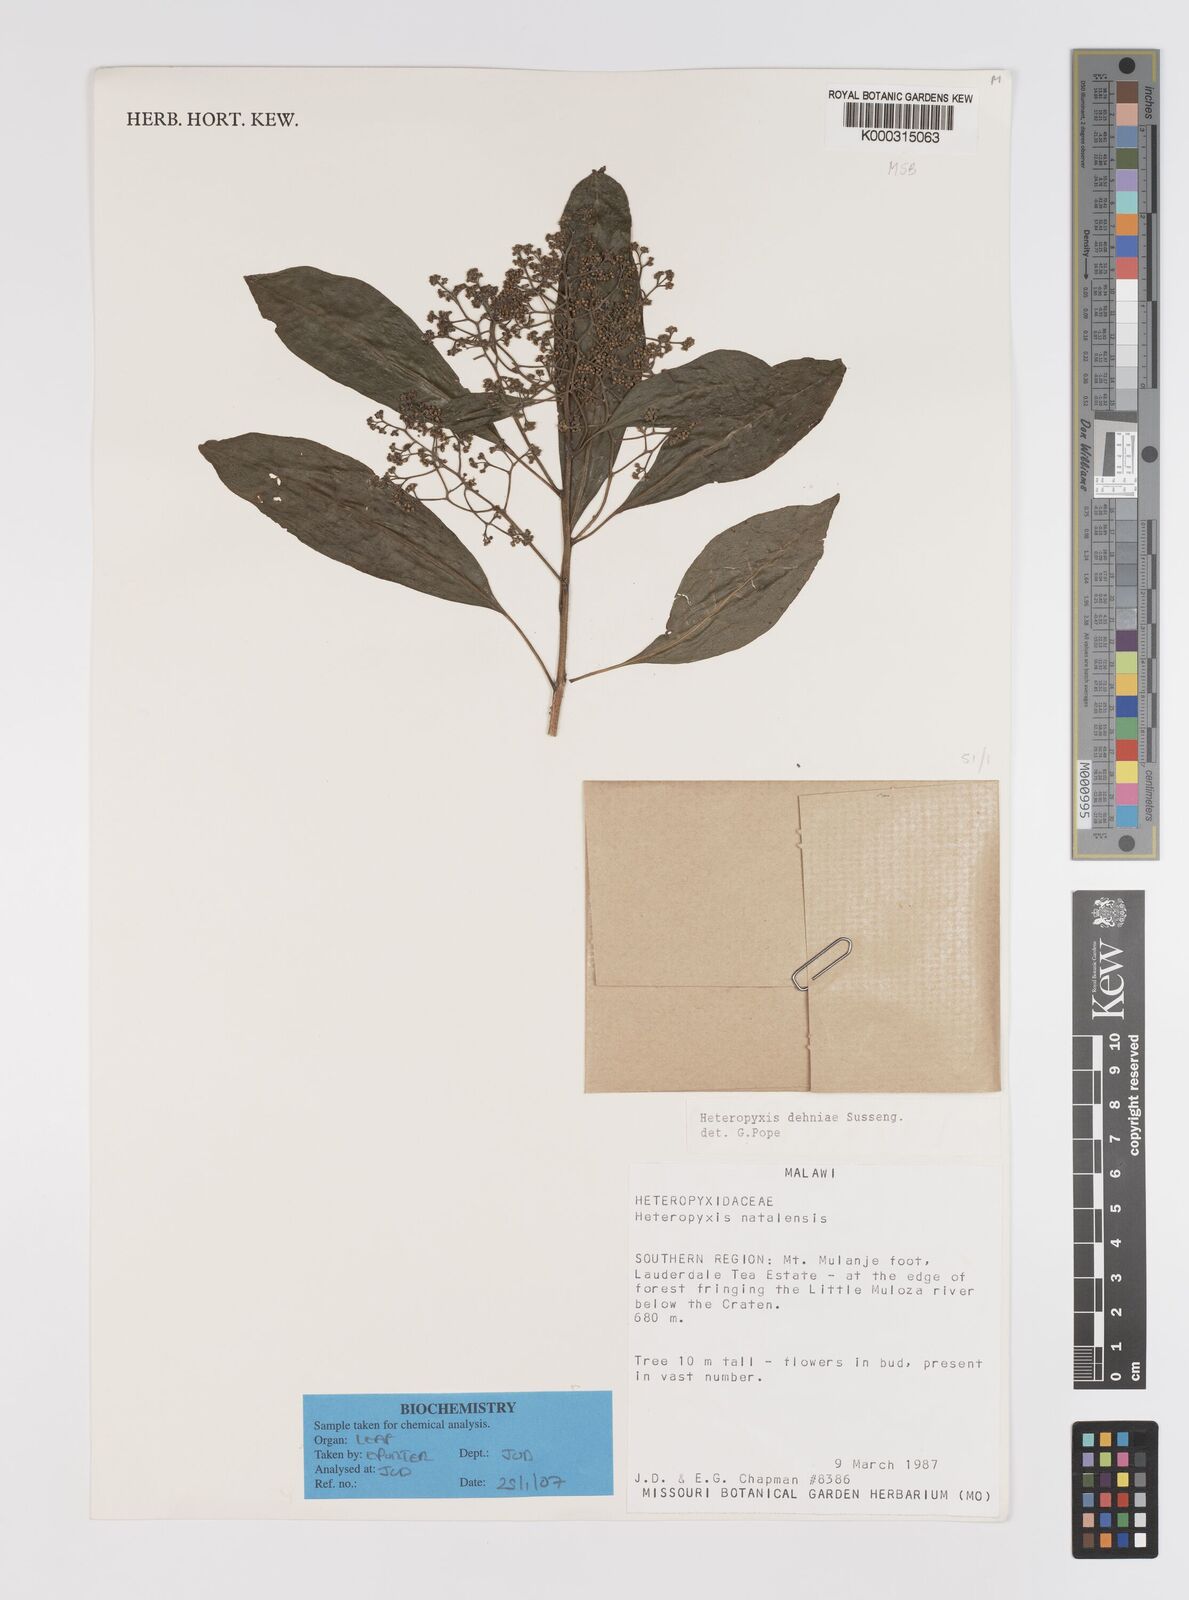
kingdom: Plantae
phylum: Tracheophyta
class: Magnoliopsida
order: Myrtales
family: Myrtaceae
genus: Heteropyxis
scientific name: Heteropyxis dehniae
